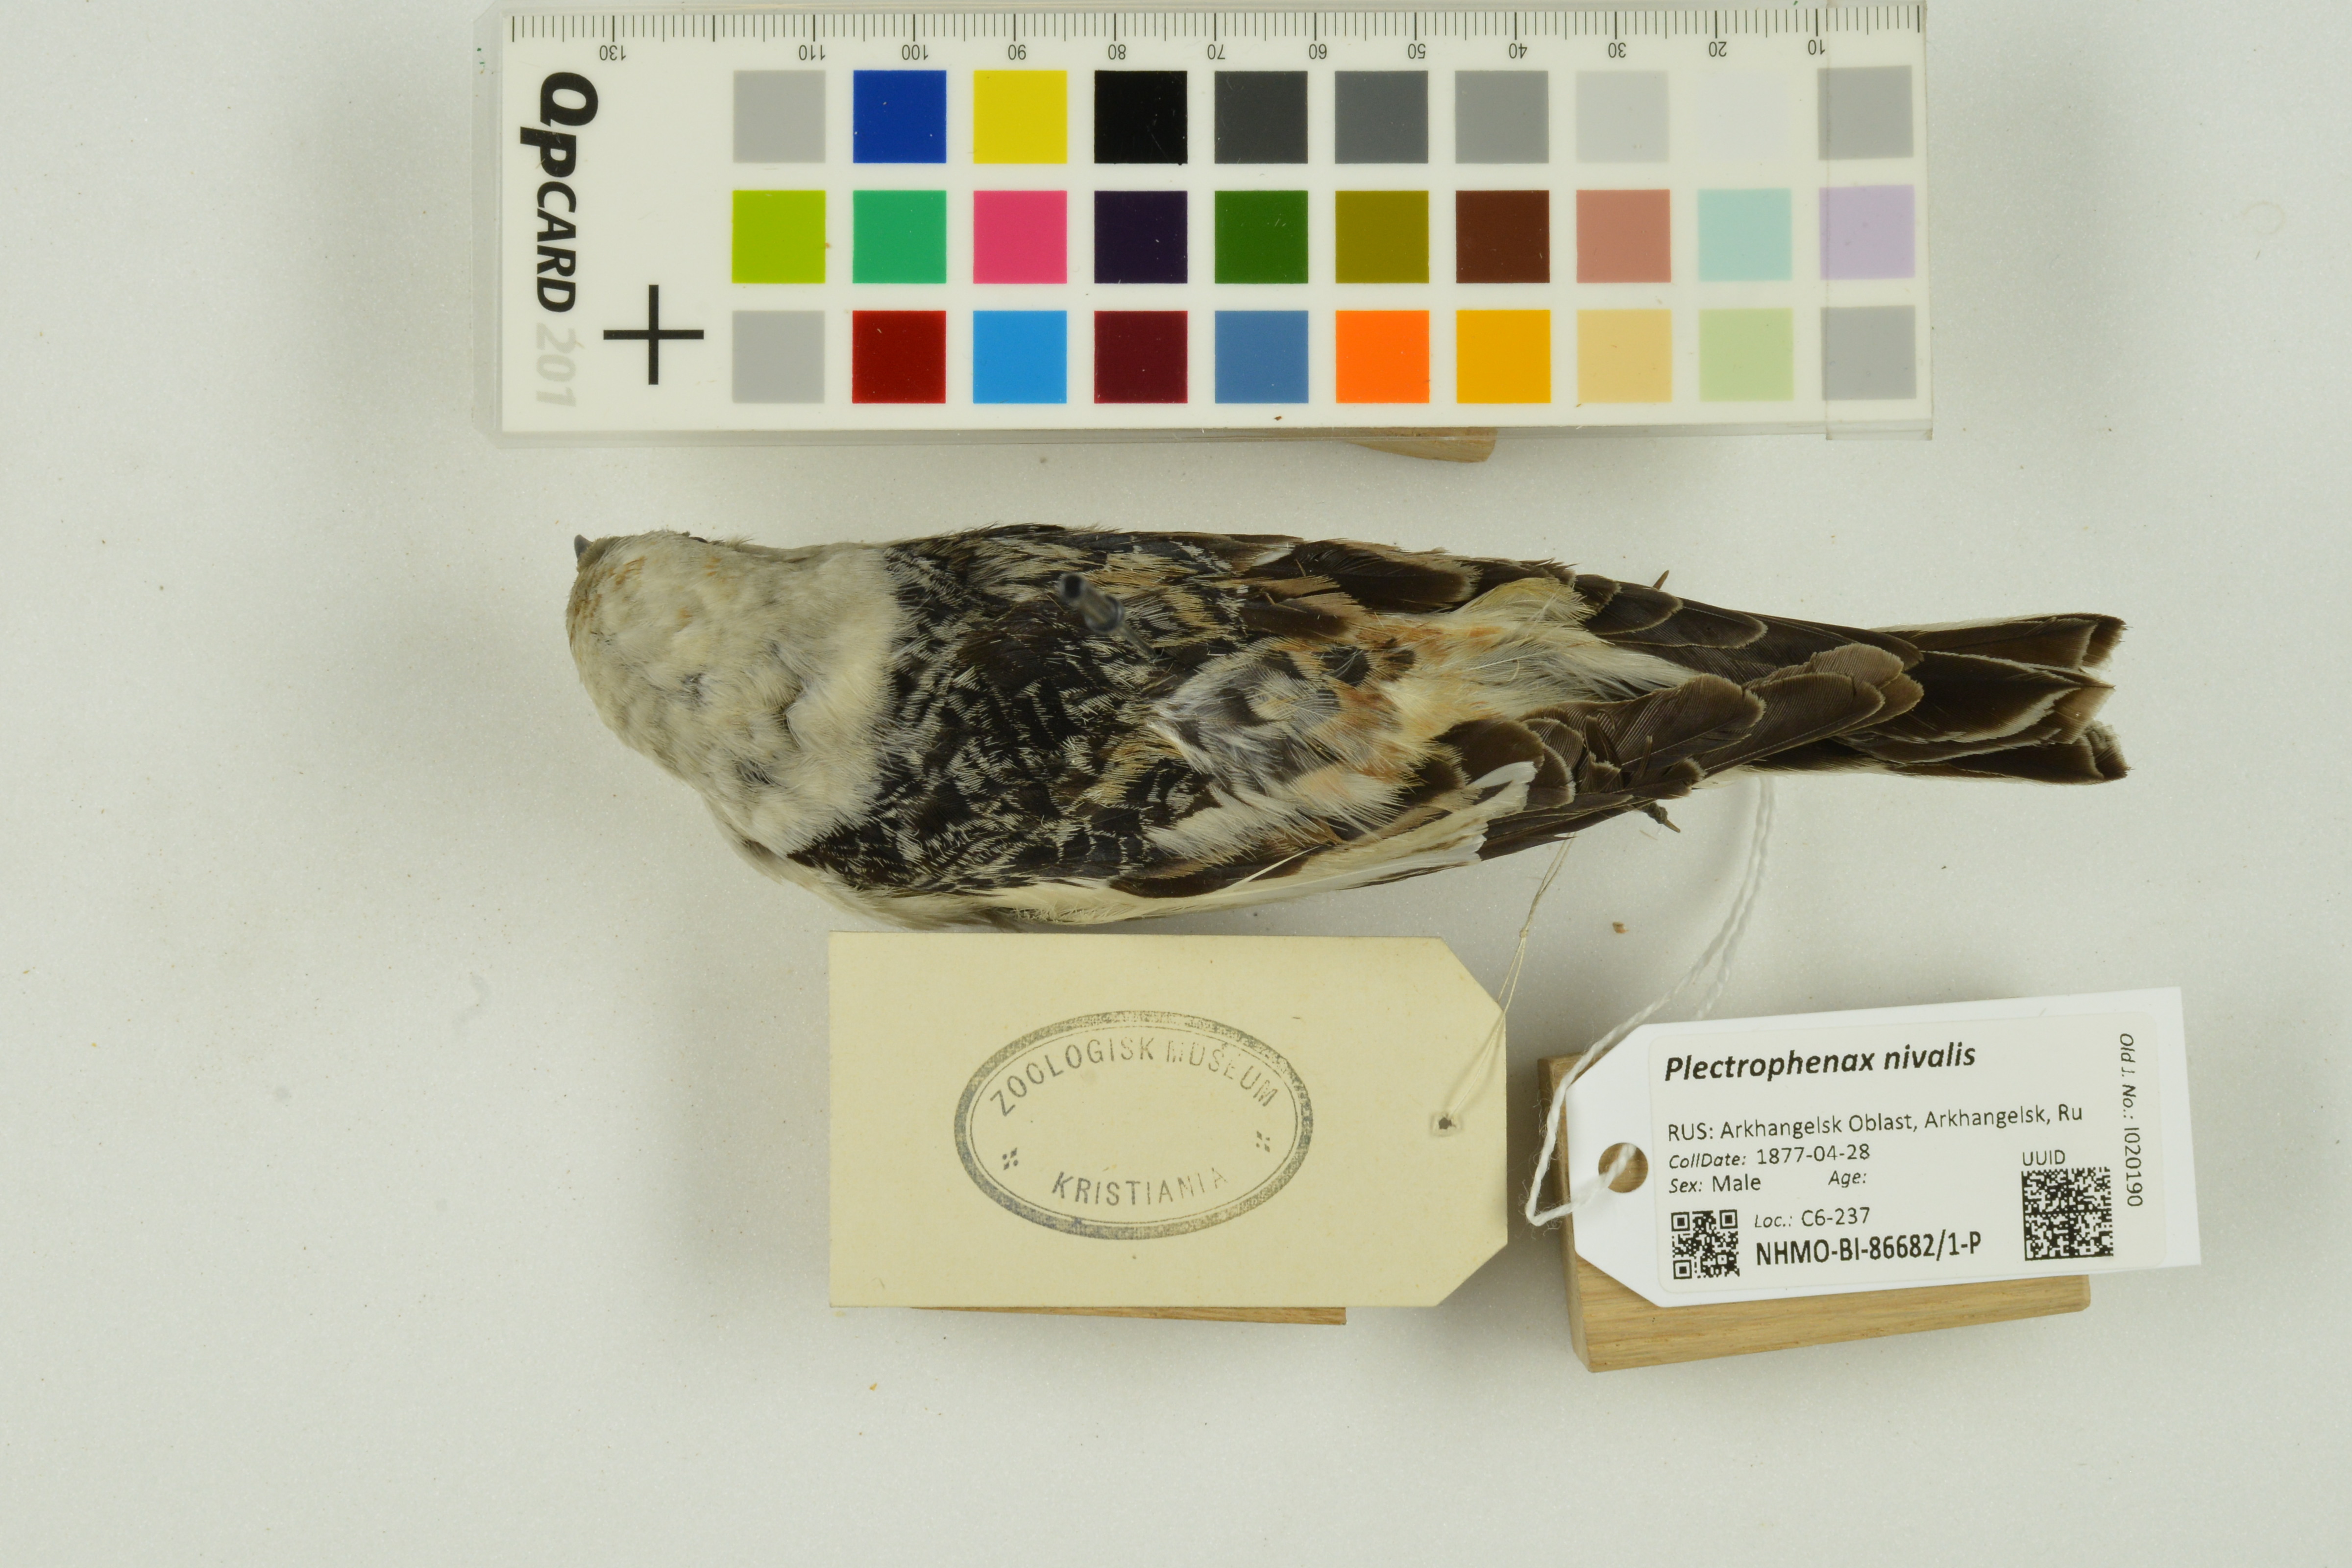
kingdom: Animalia
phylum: Chordata
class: Aves
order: Passeriformes
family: Calcariidae
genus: Plectrophenax
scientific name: Plectrophenax nivalis
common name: Snow bunting
